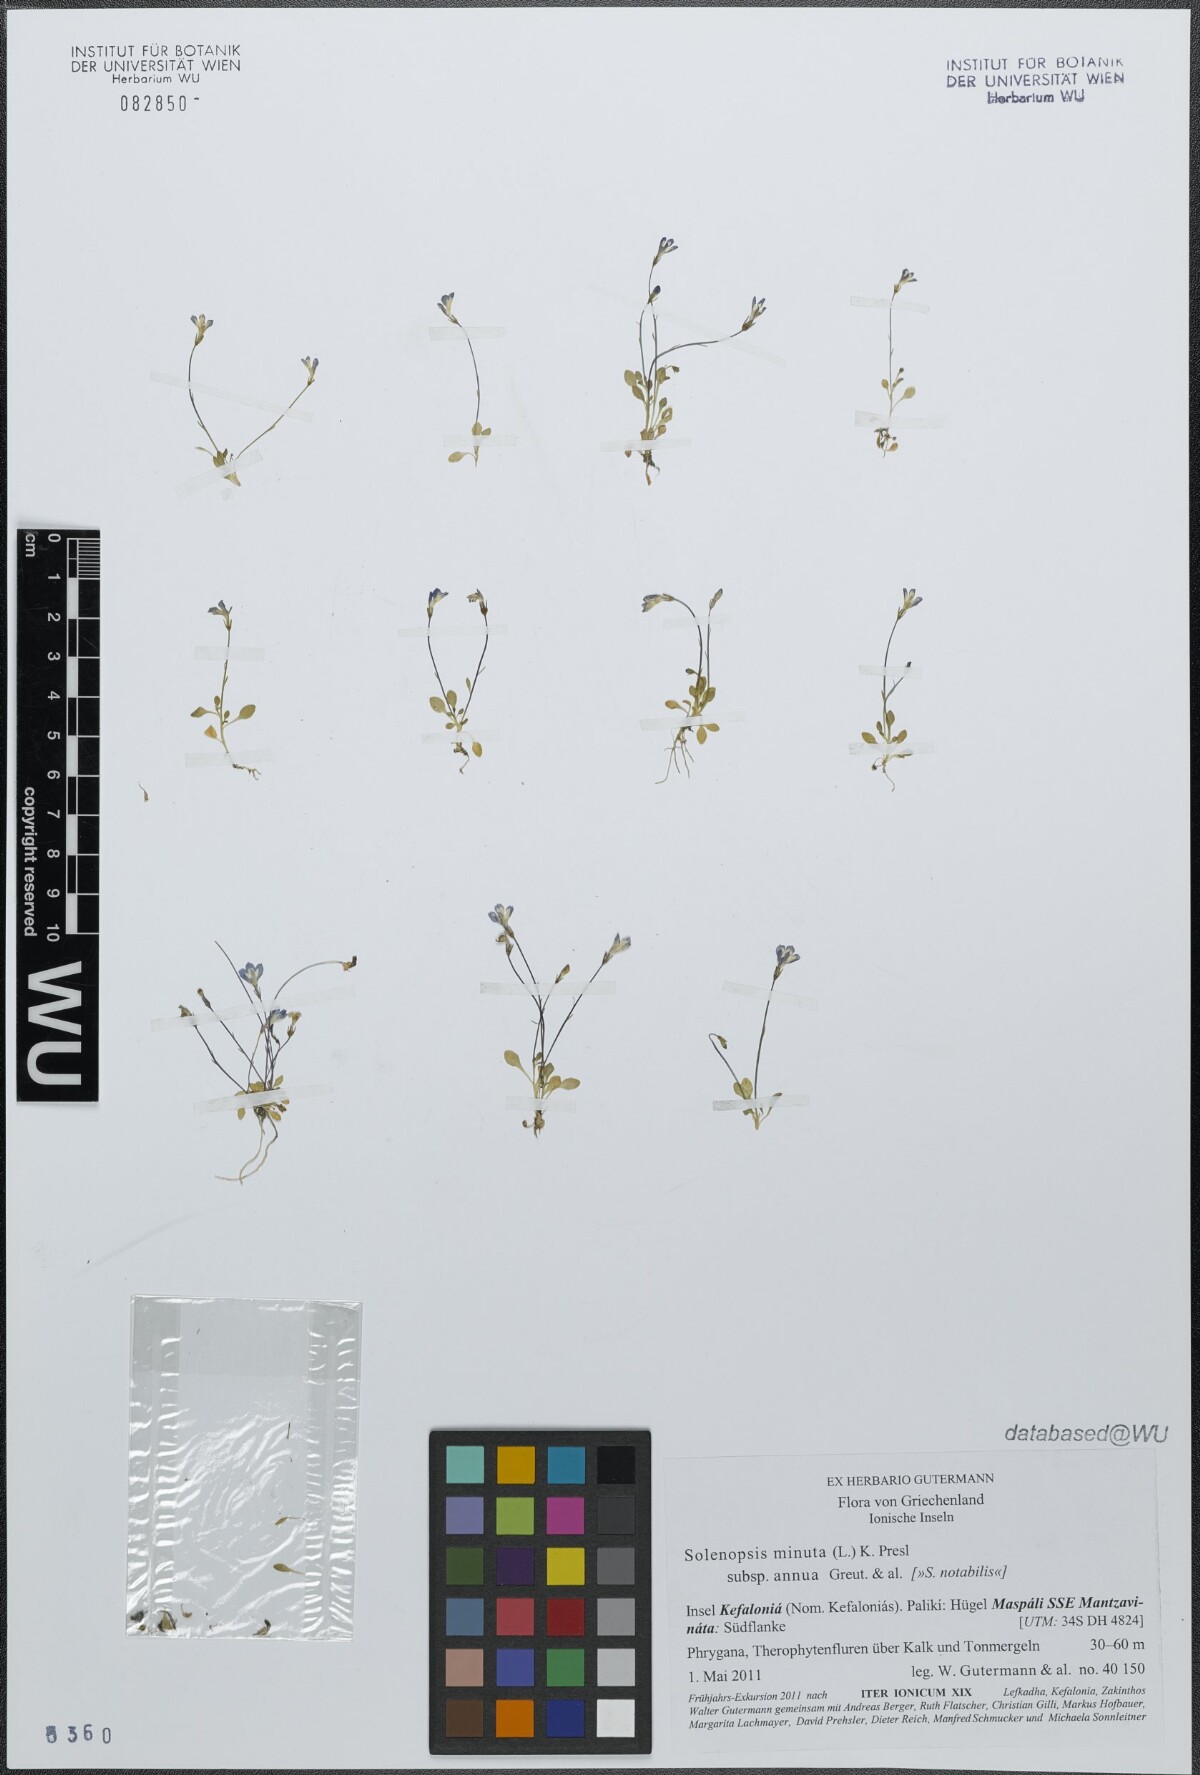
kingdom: Plantae
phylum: Tracheophyta
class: Magnoliopsida
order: Asterales
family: Campanulaceae
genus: Solenopsis
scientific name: Solenopsis annua
